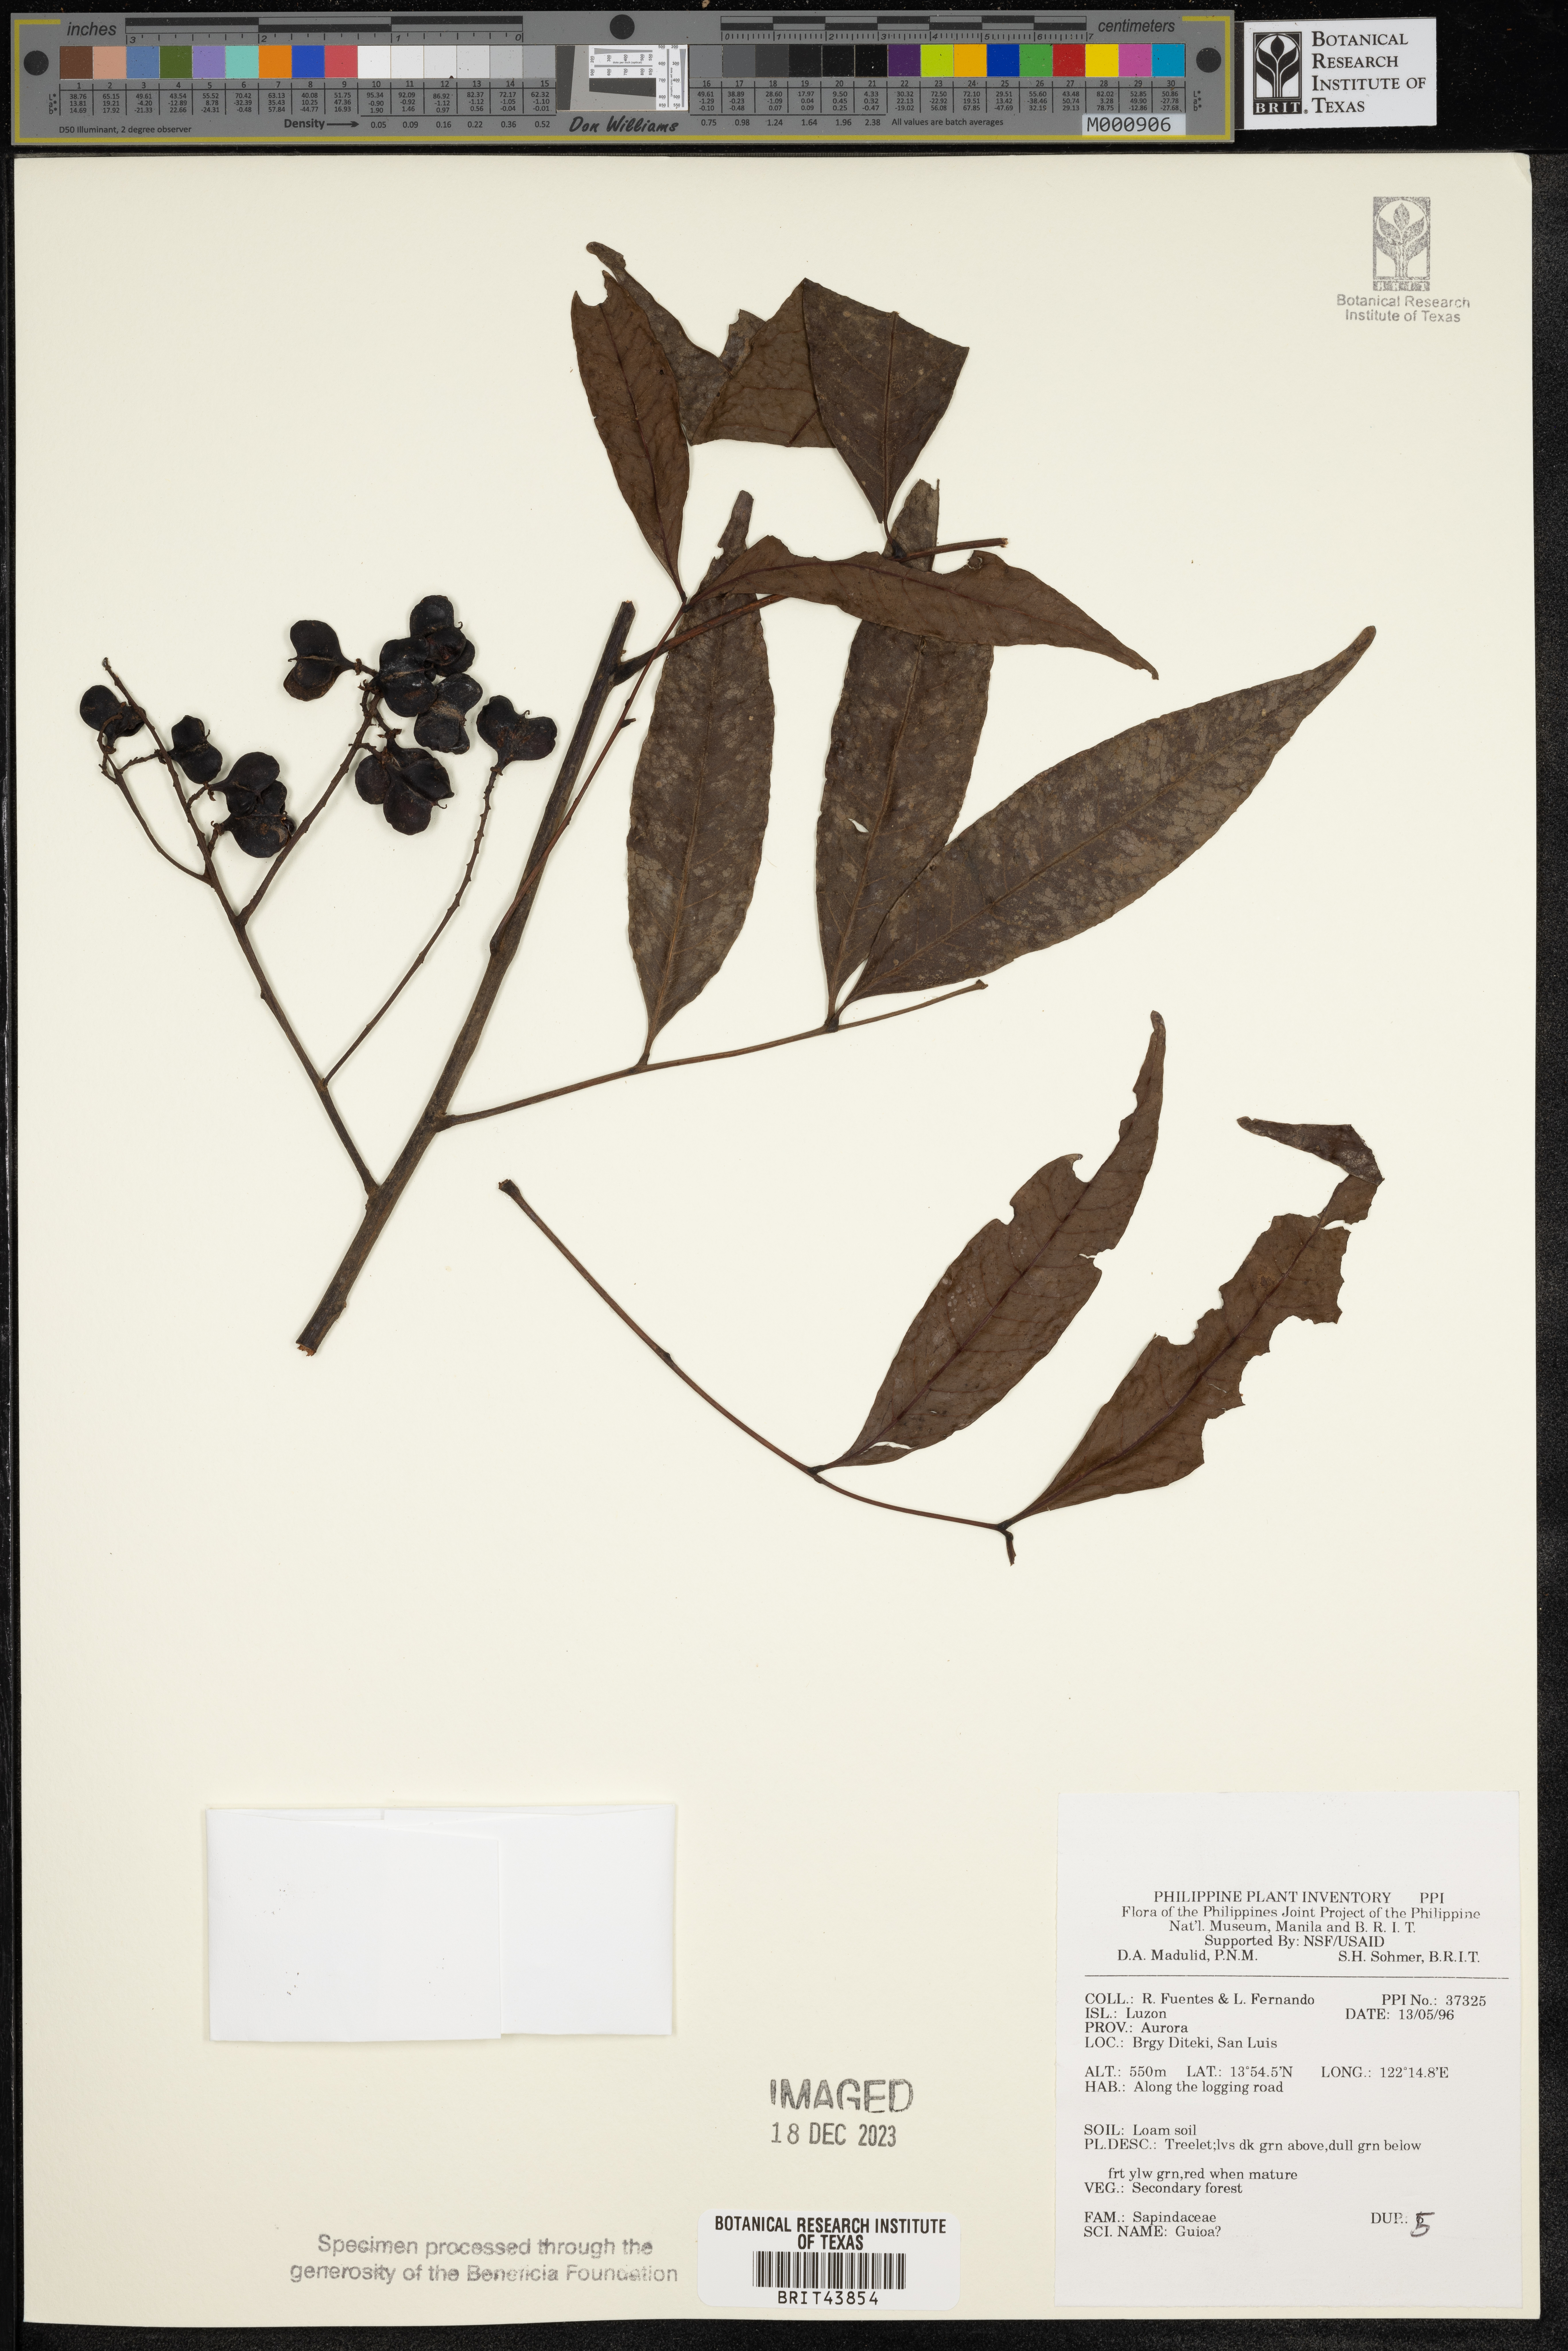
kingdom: Plantae
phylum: Tracheophyta
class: Magnoliopsida
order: Sapindales
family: Sapindaceae
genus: Guioa
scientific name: Guioa
